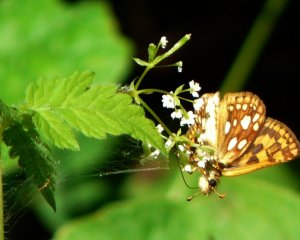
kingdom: Animalia
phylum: Arthropoda
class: Insecta
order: Lepidoptera
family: Hesperiidae
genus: Carterocephalus
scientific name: Carterocephalus palaemon
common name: Chequered Skipper
